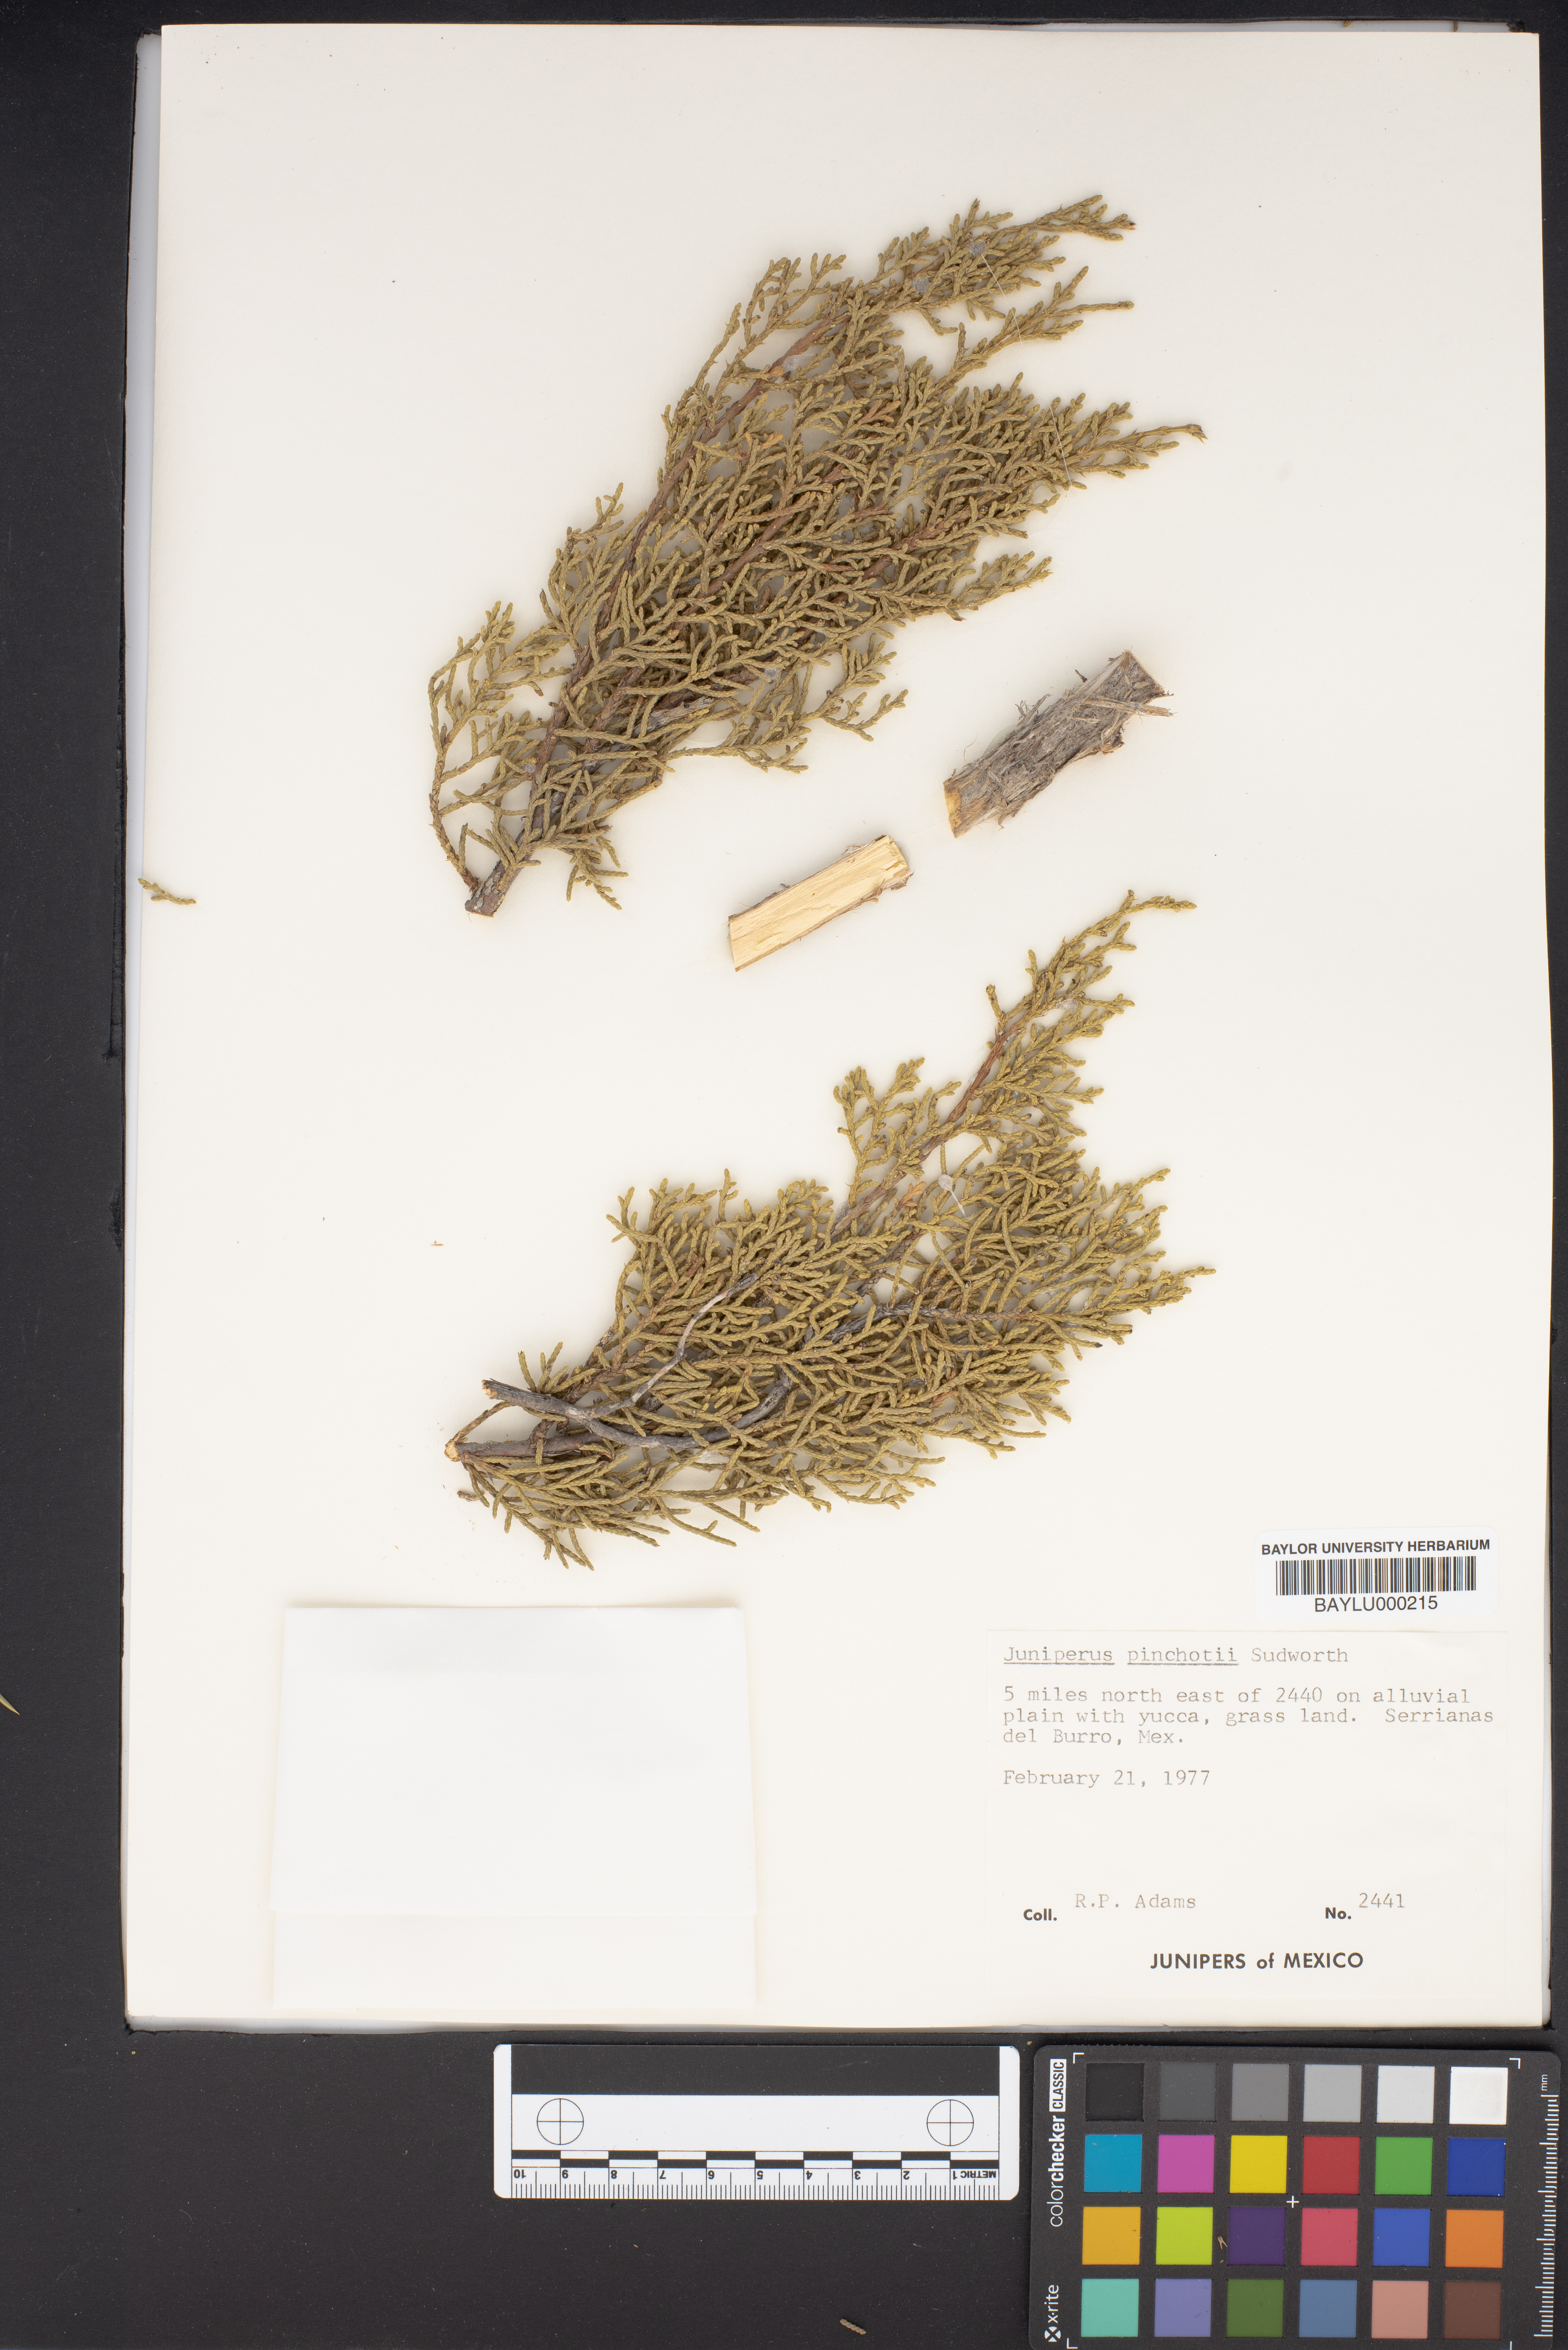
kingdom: Plantae
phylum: Tracheophyta
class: Pinopsida
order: Pinales
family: Cupressaceae
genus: Juniperus
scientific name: Juniperus pinchotii
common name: Pinchot juniper
